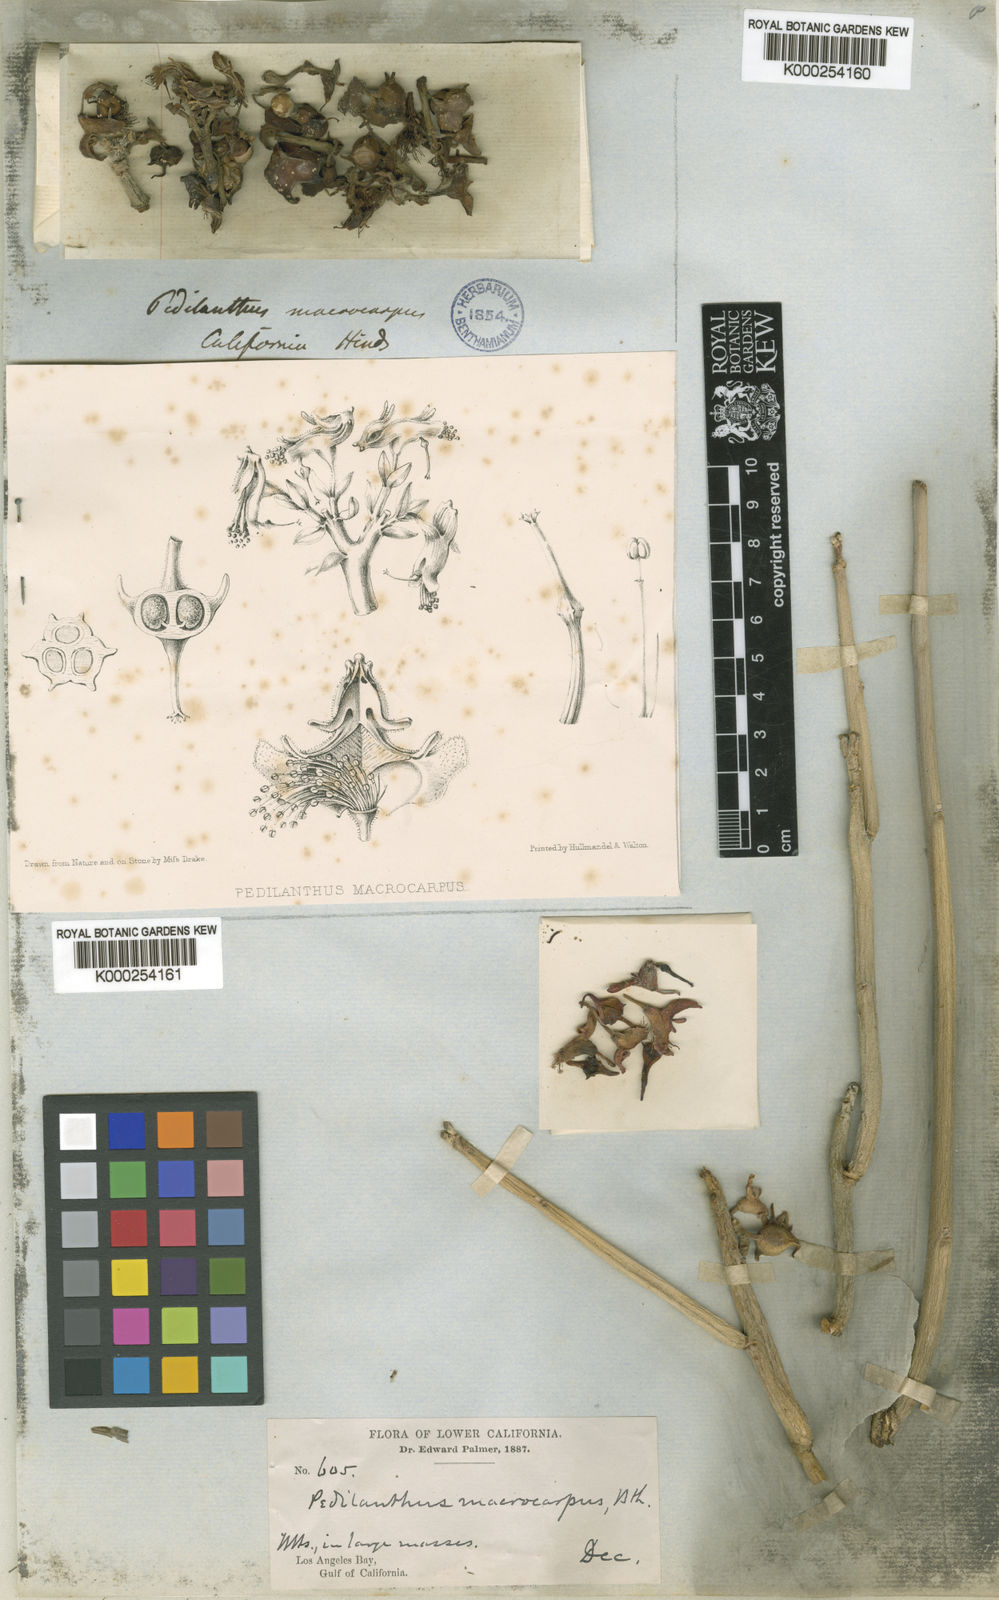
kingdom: Plantae
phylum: Tracheophyta
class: Magnoliopsida
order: Malpighiales
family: Euphorbiaceae
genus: Euphorbia
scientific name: Euphorbia lomelii
